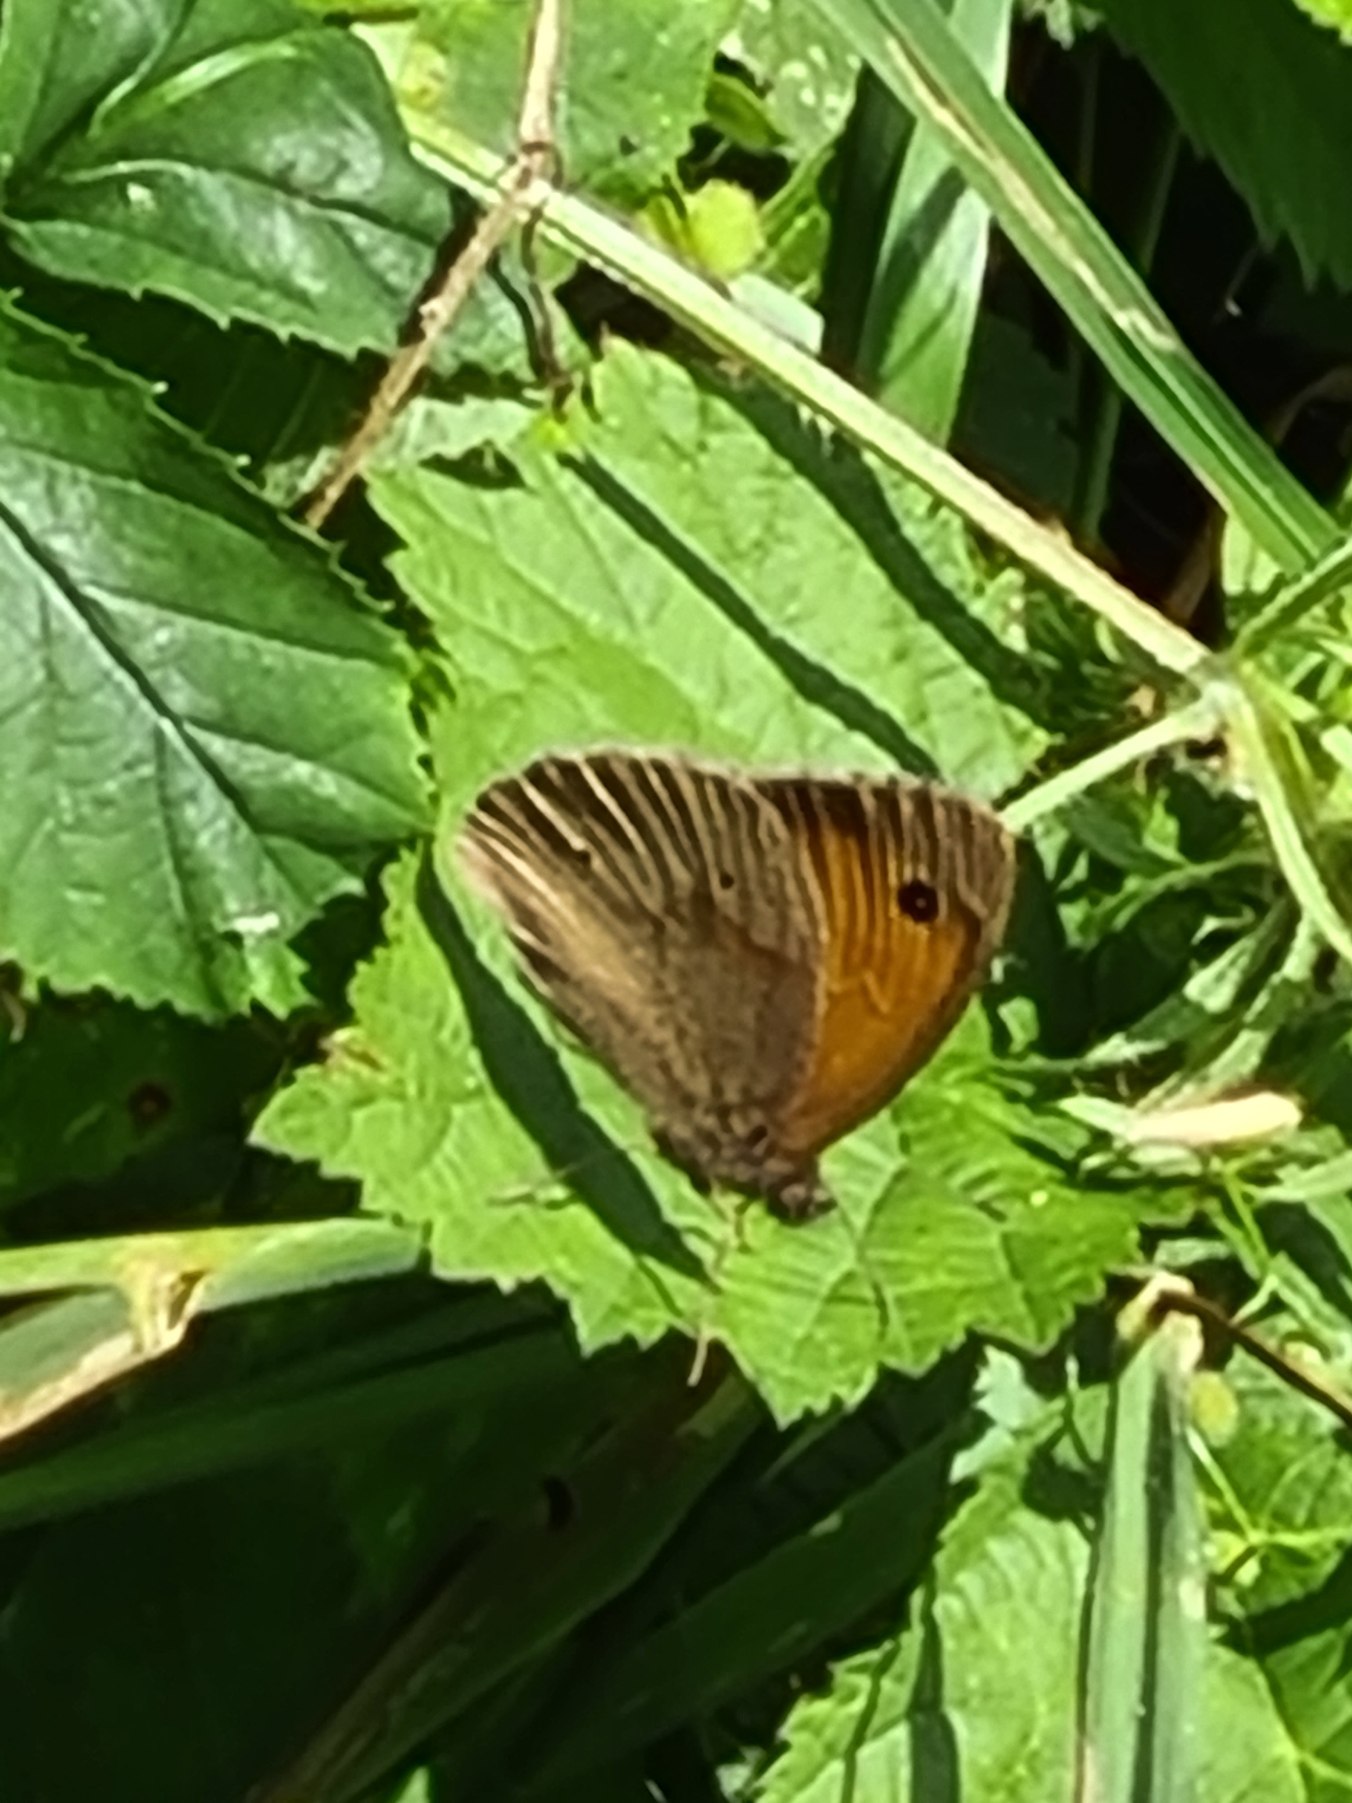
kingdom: Animalia
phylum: Arthropoda
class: Insecta
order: Lepidoptera
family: Nymphalidae
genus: Maniola
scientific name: Maniola jurtina
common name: Græsrandøje
